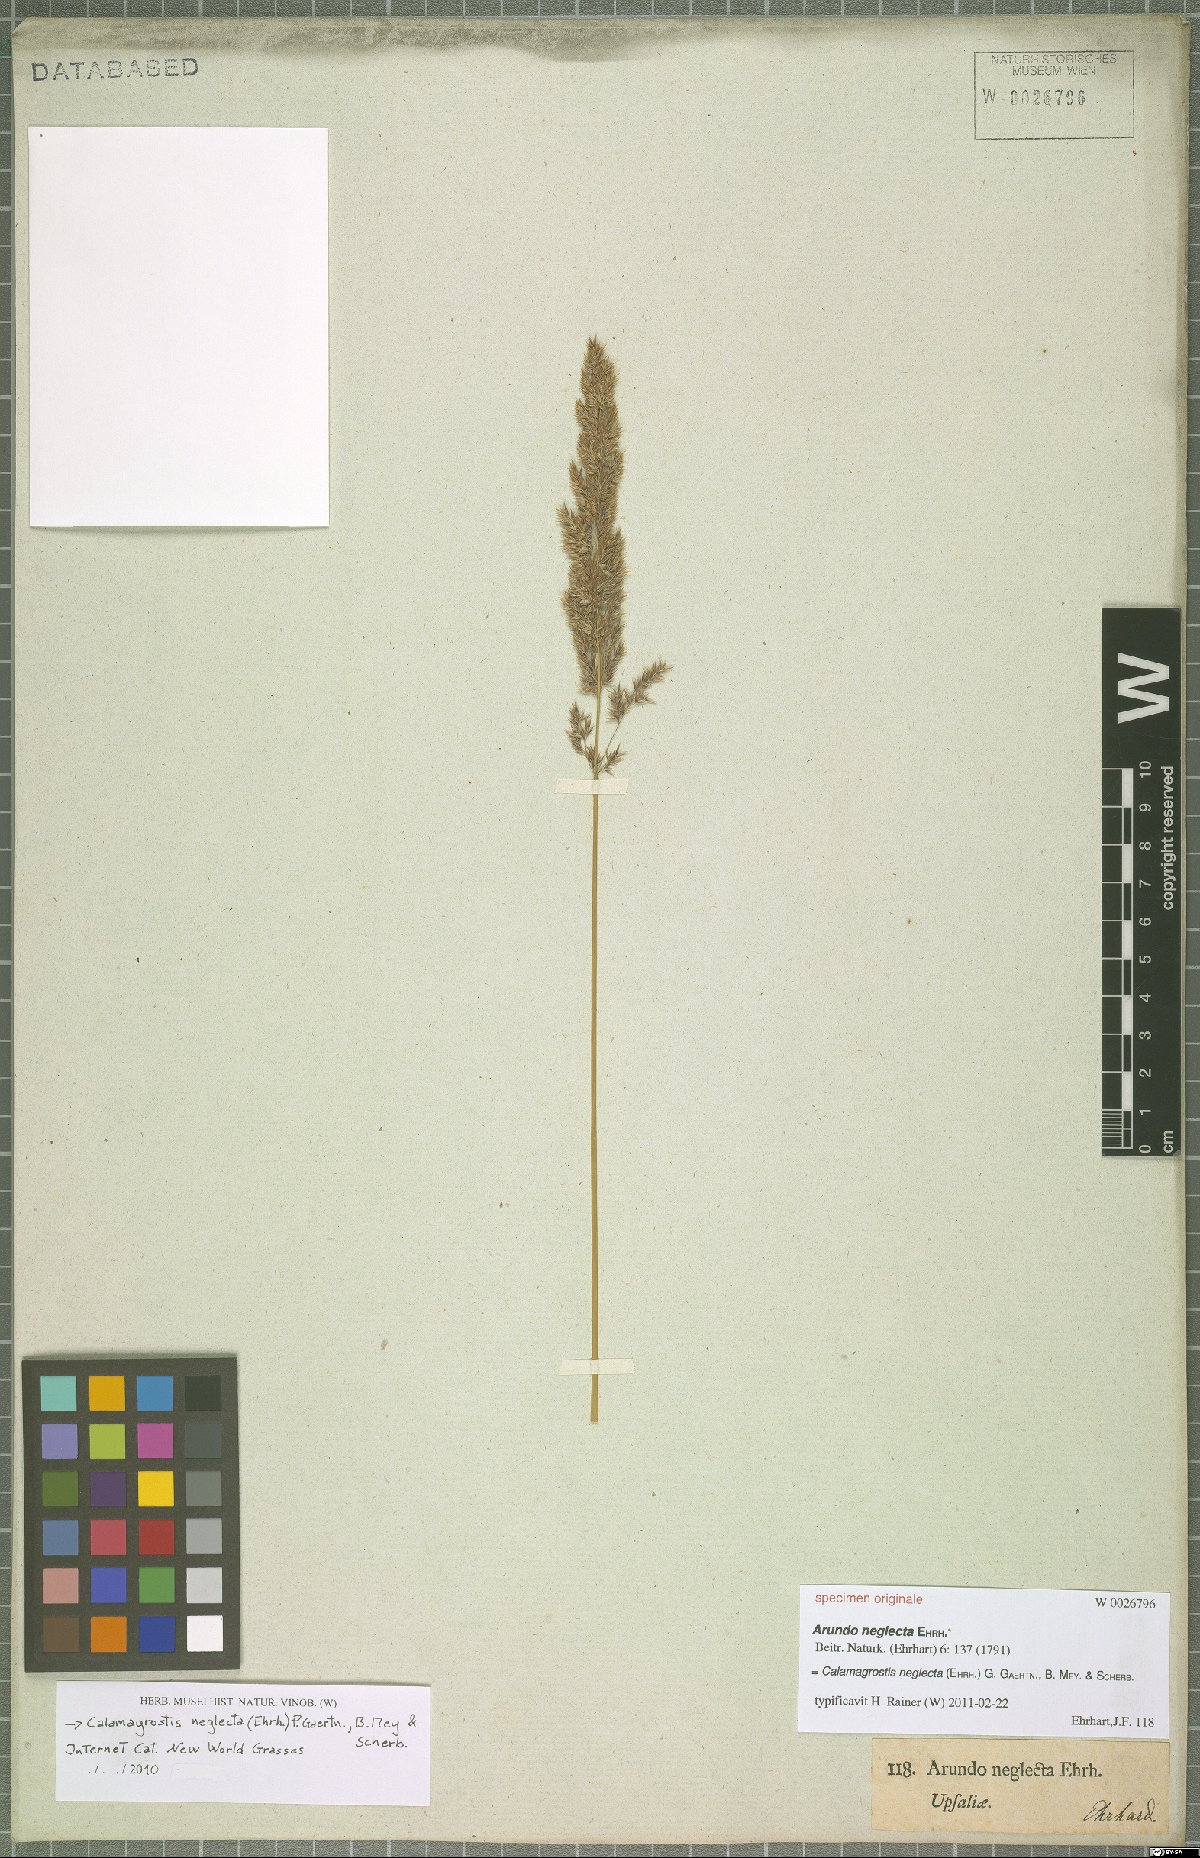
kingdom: Plantae
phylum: Tracheophyta
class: Liliopsida
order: Poales
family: Poaceae
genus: Achnatherum
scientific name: Achnatherum calamagrostis
